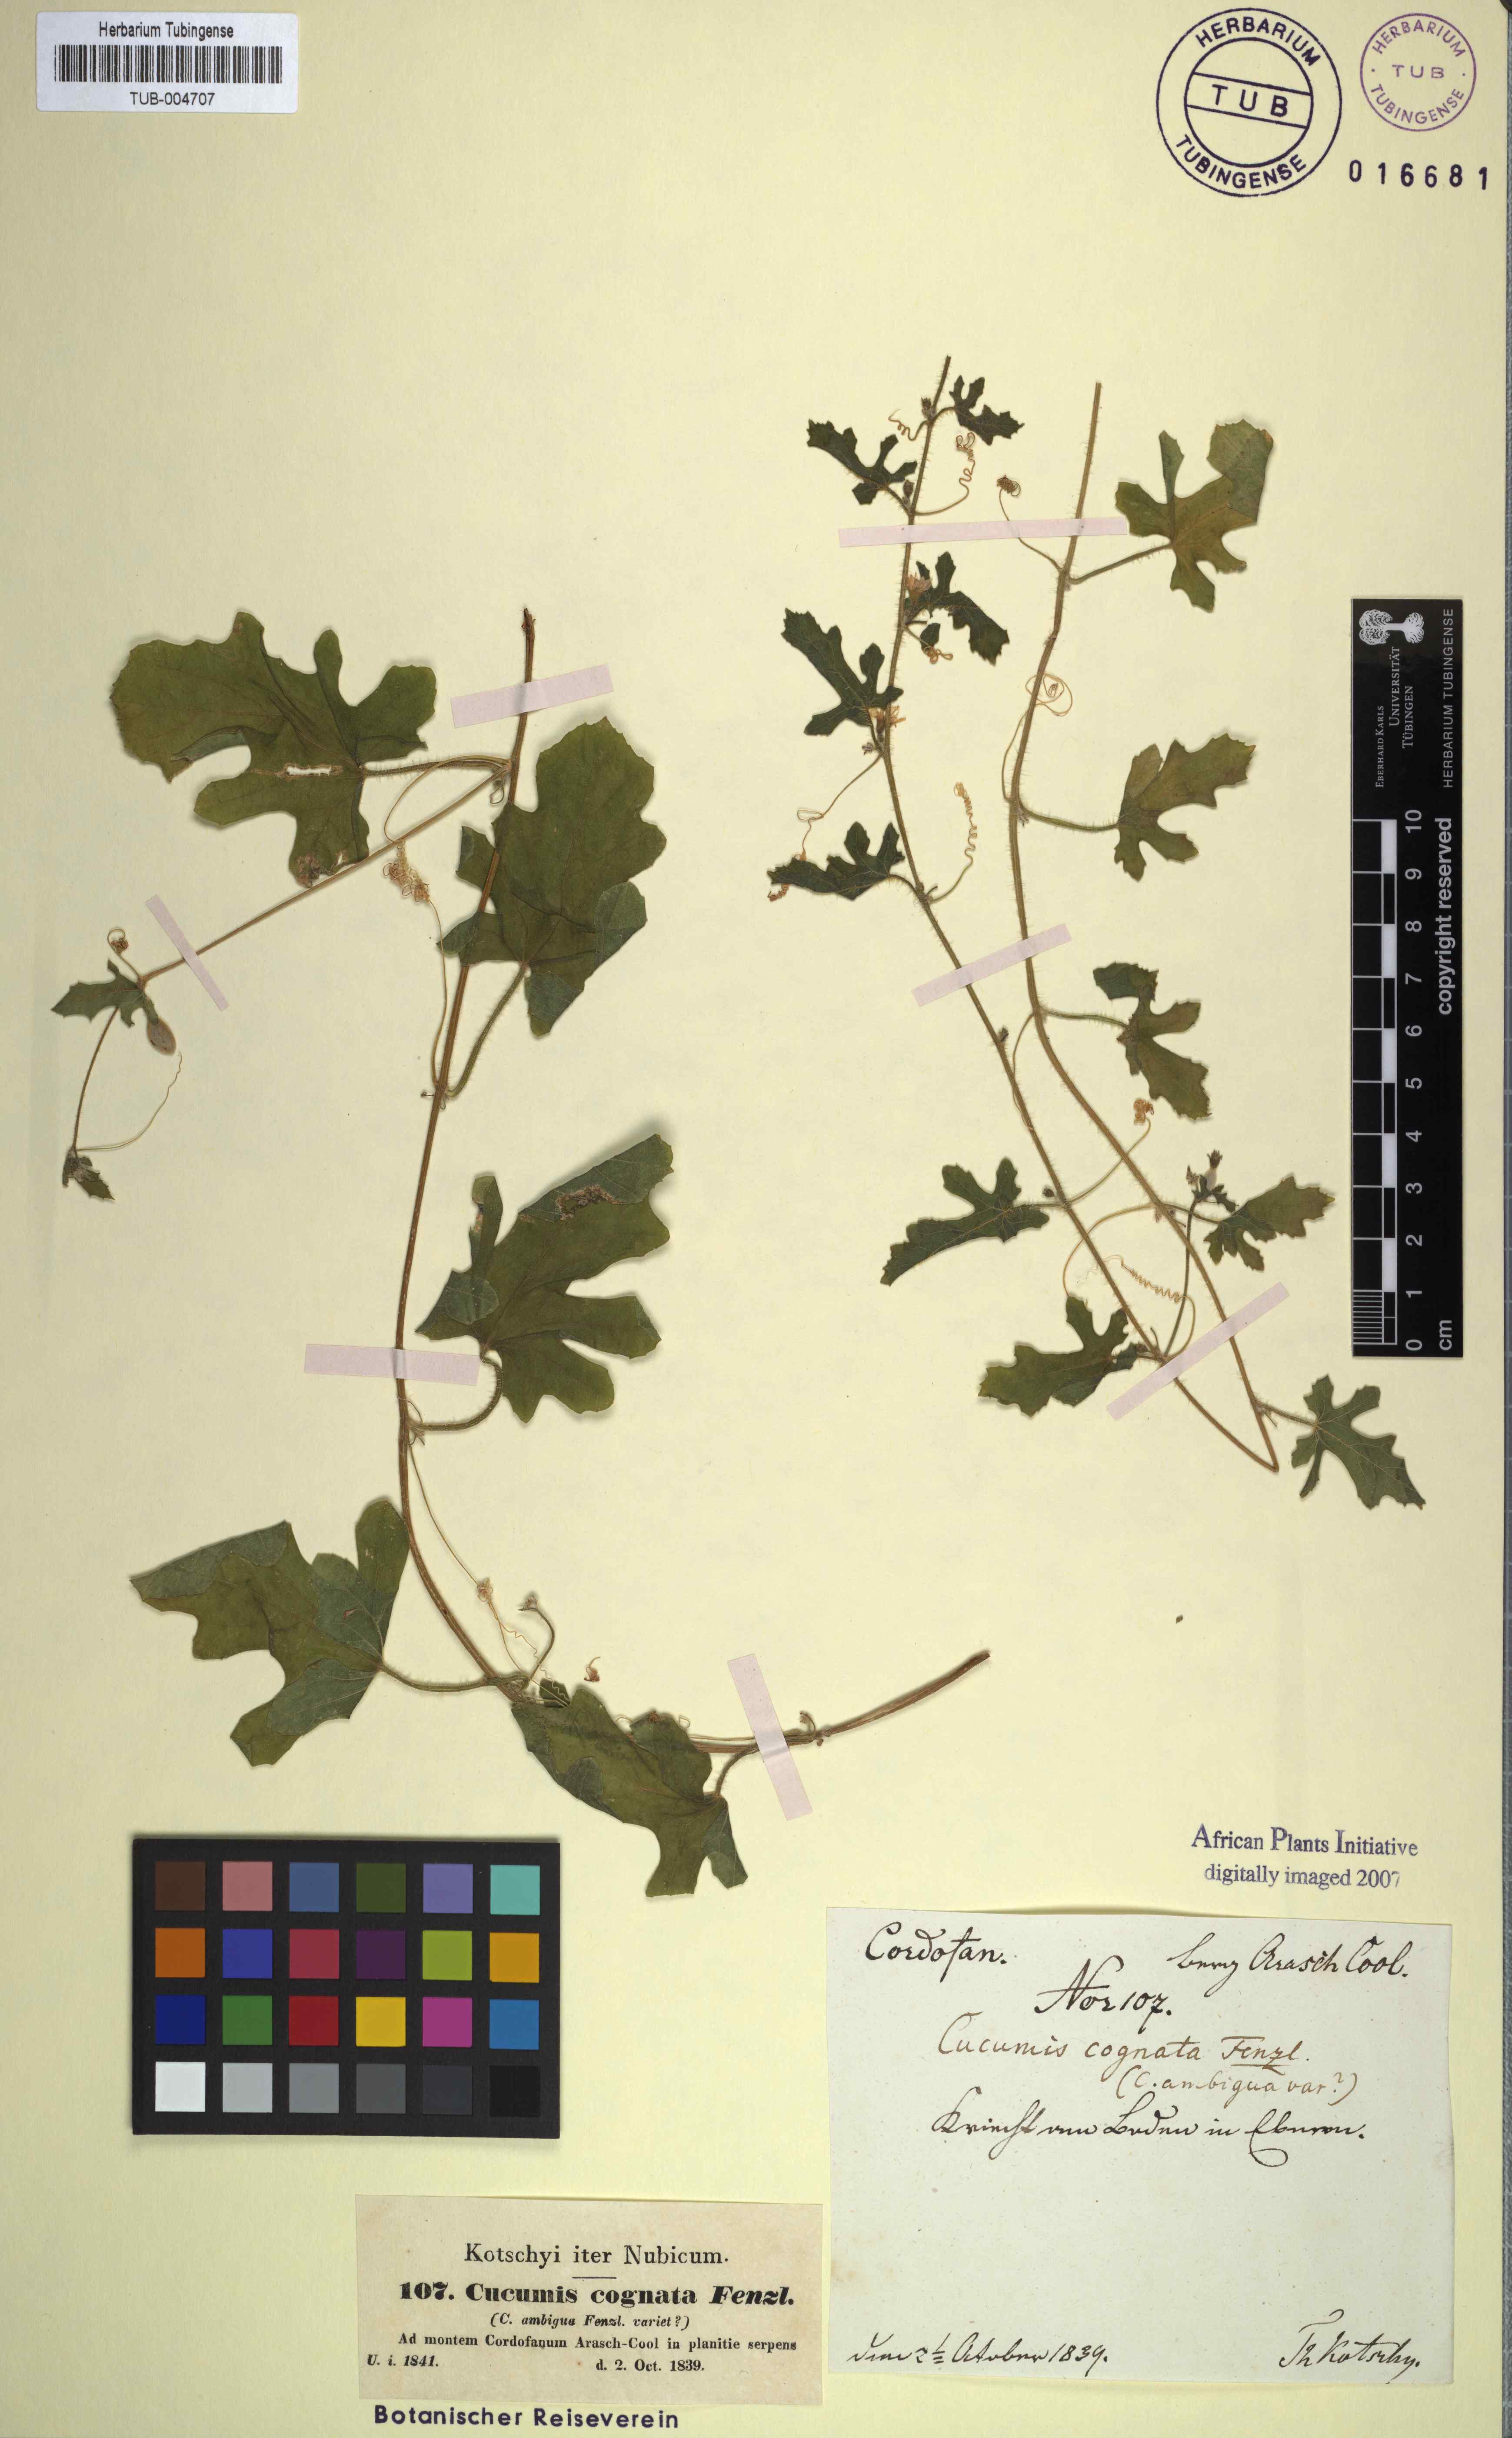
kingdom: Plantae
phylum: Tracheophyta
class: Magnoliopsida
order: Cucurbitales
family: Cucurbitaceae
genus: Cucumis
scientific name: Cucumis melo
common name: Melon
